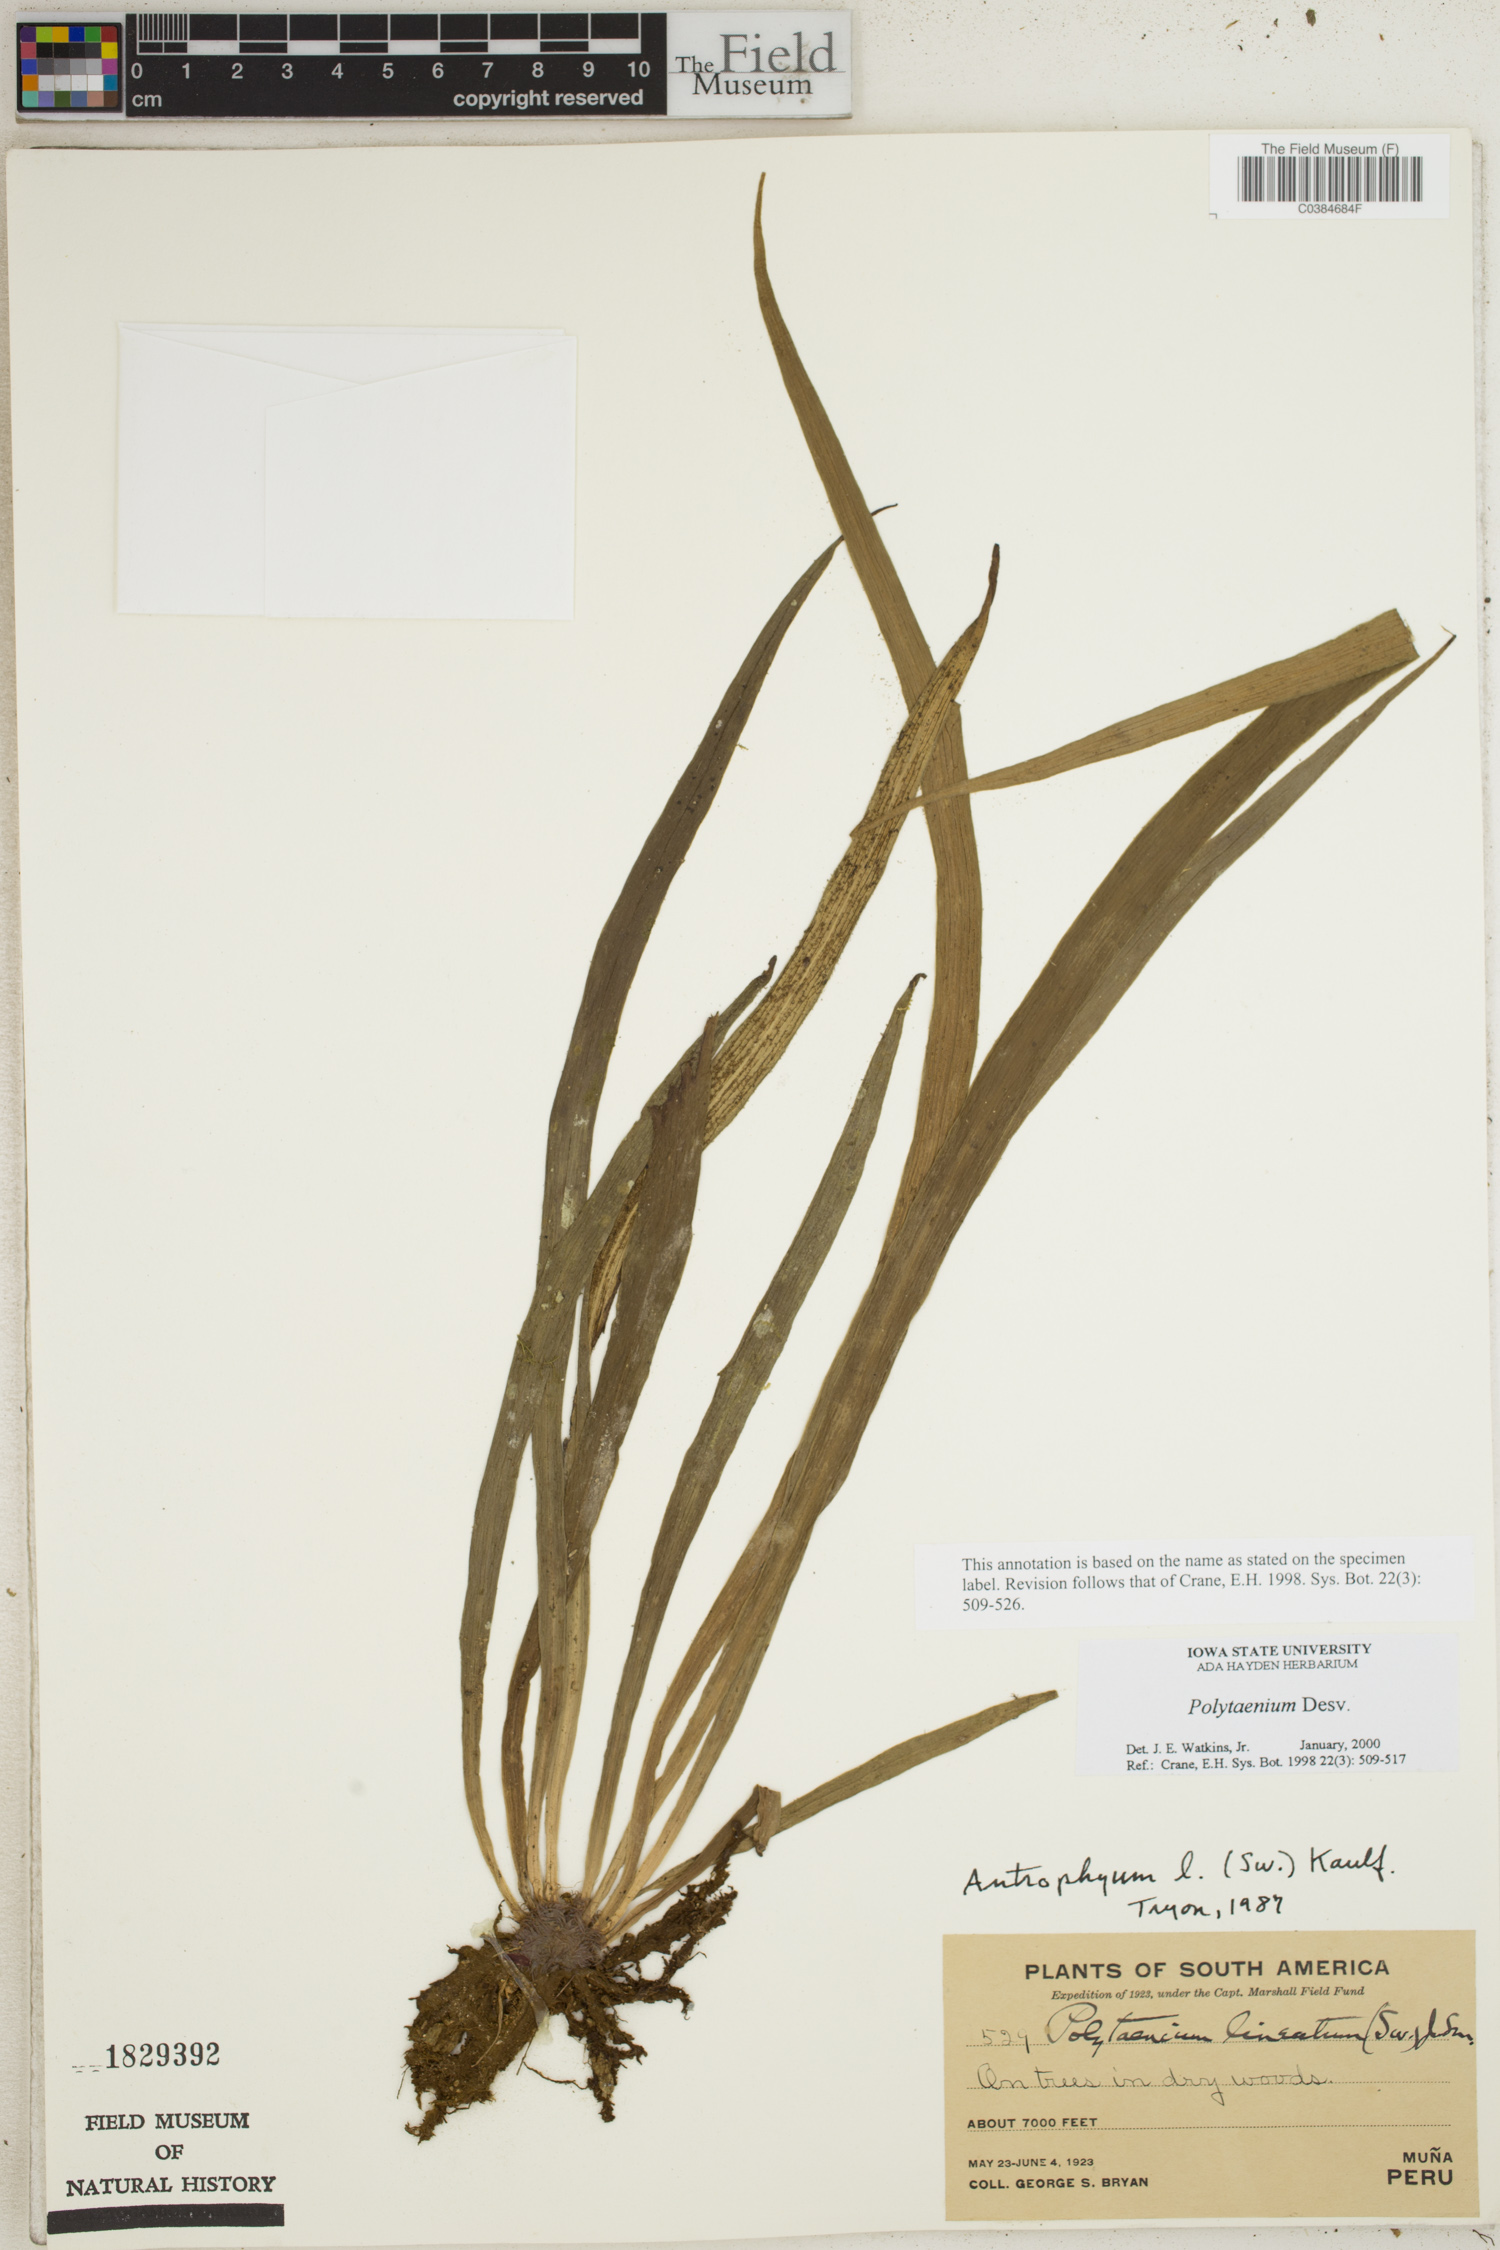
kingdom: Plantae
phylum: Tracheophyta
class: Polypodiopsida
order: Polypodiales
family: Pteridaceae
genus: Polytaenium
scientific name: Polytaenium
